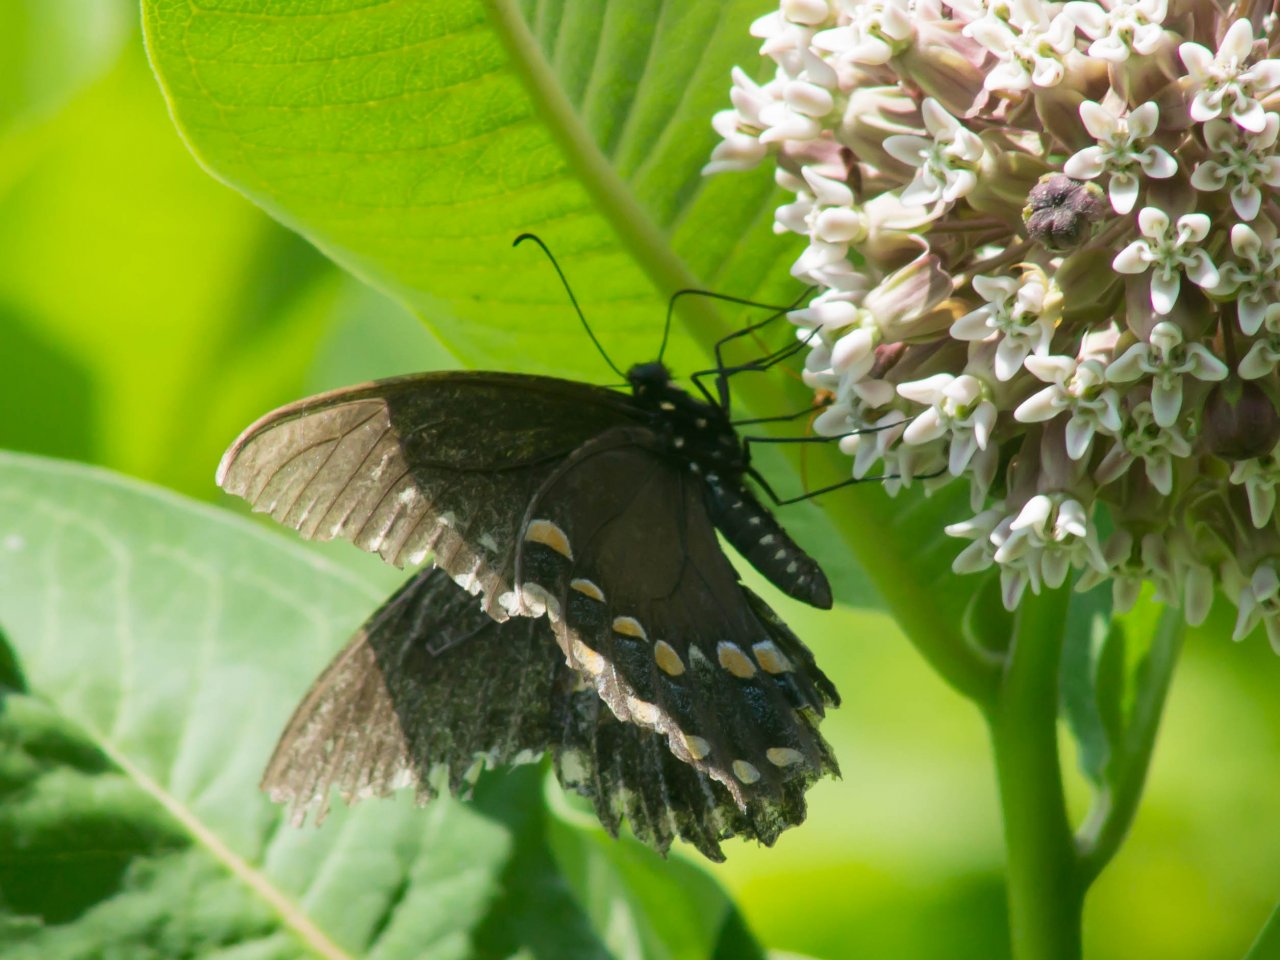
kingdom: Animalia
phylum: Arthropoda
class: Insecta
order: Lepidoptera
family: Papilionidae
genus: Pterourus
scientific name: Pterourus troilus
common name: Spicebush Swallowtail
